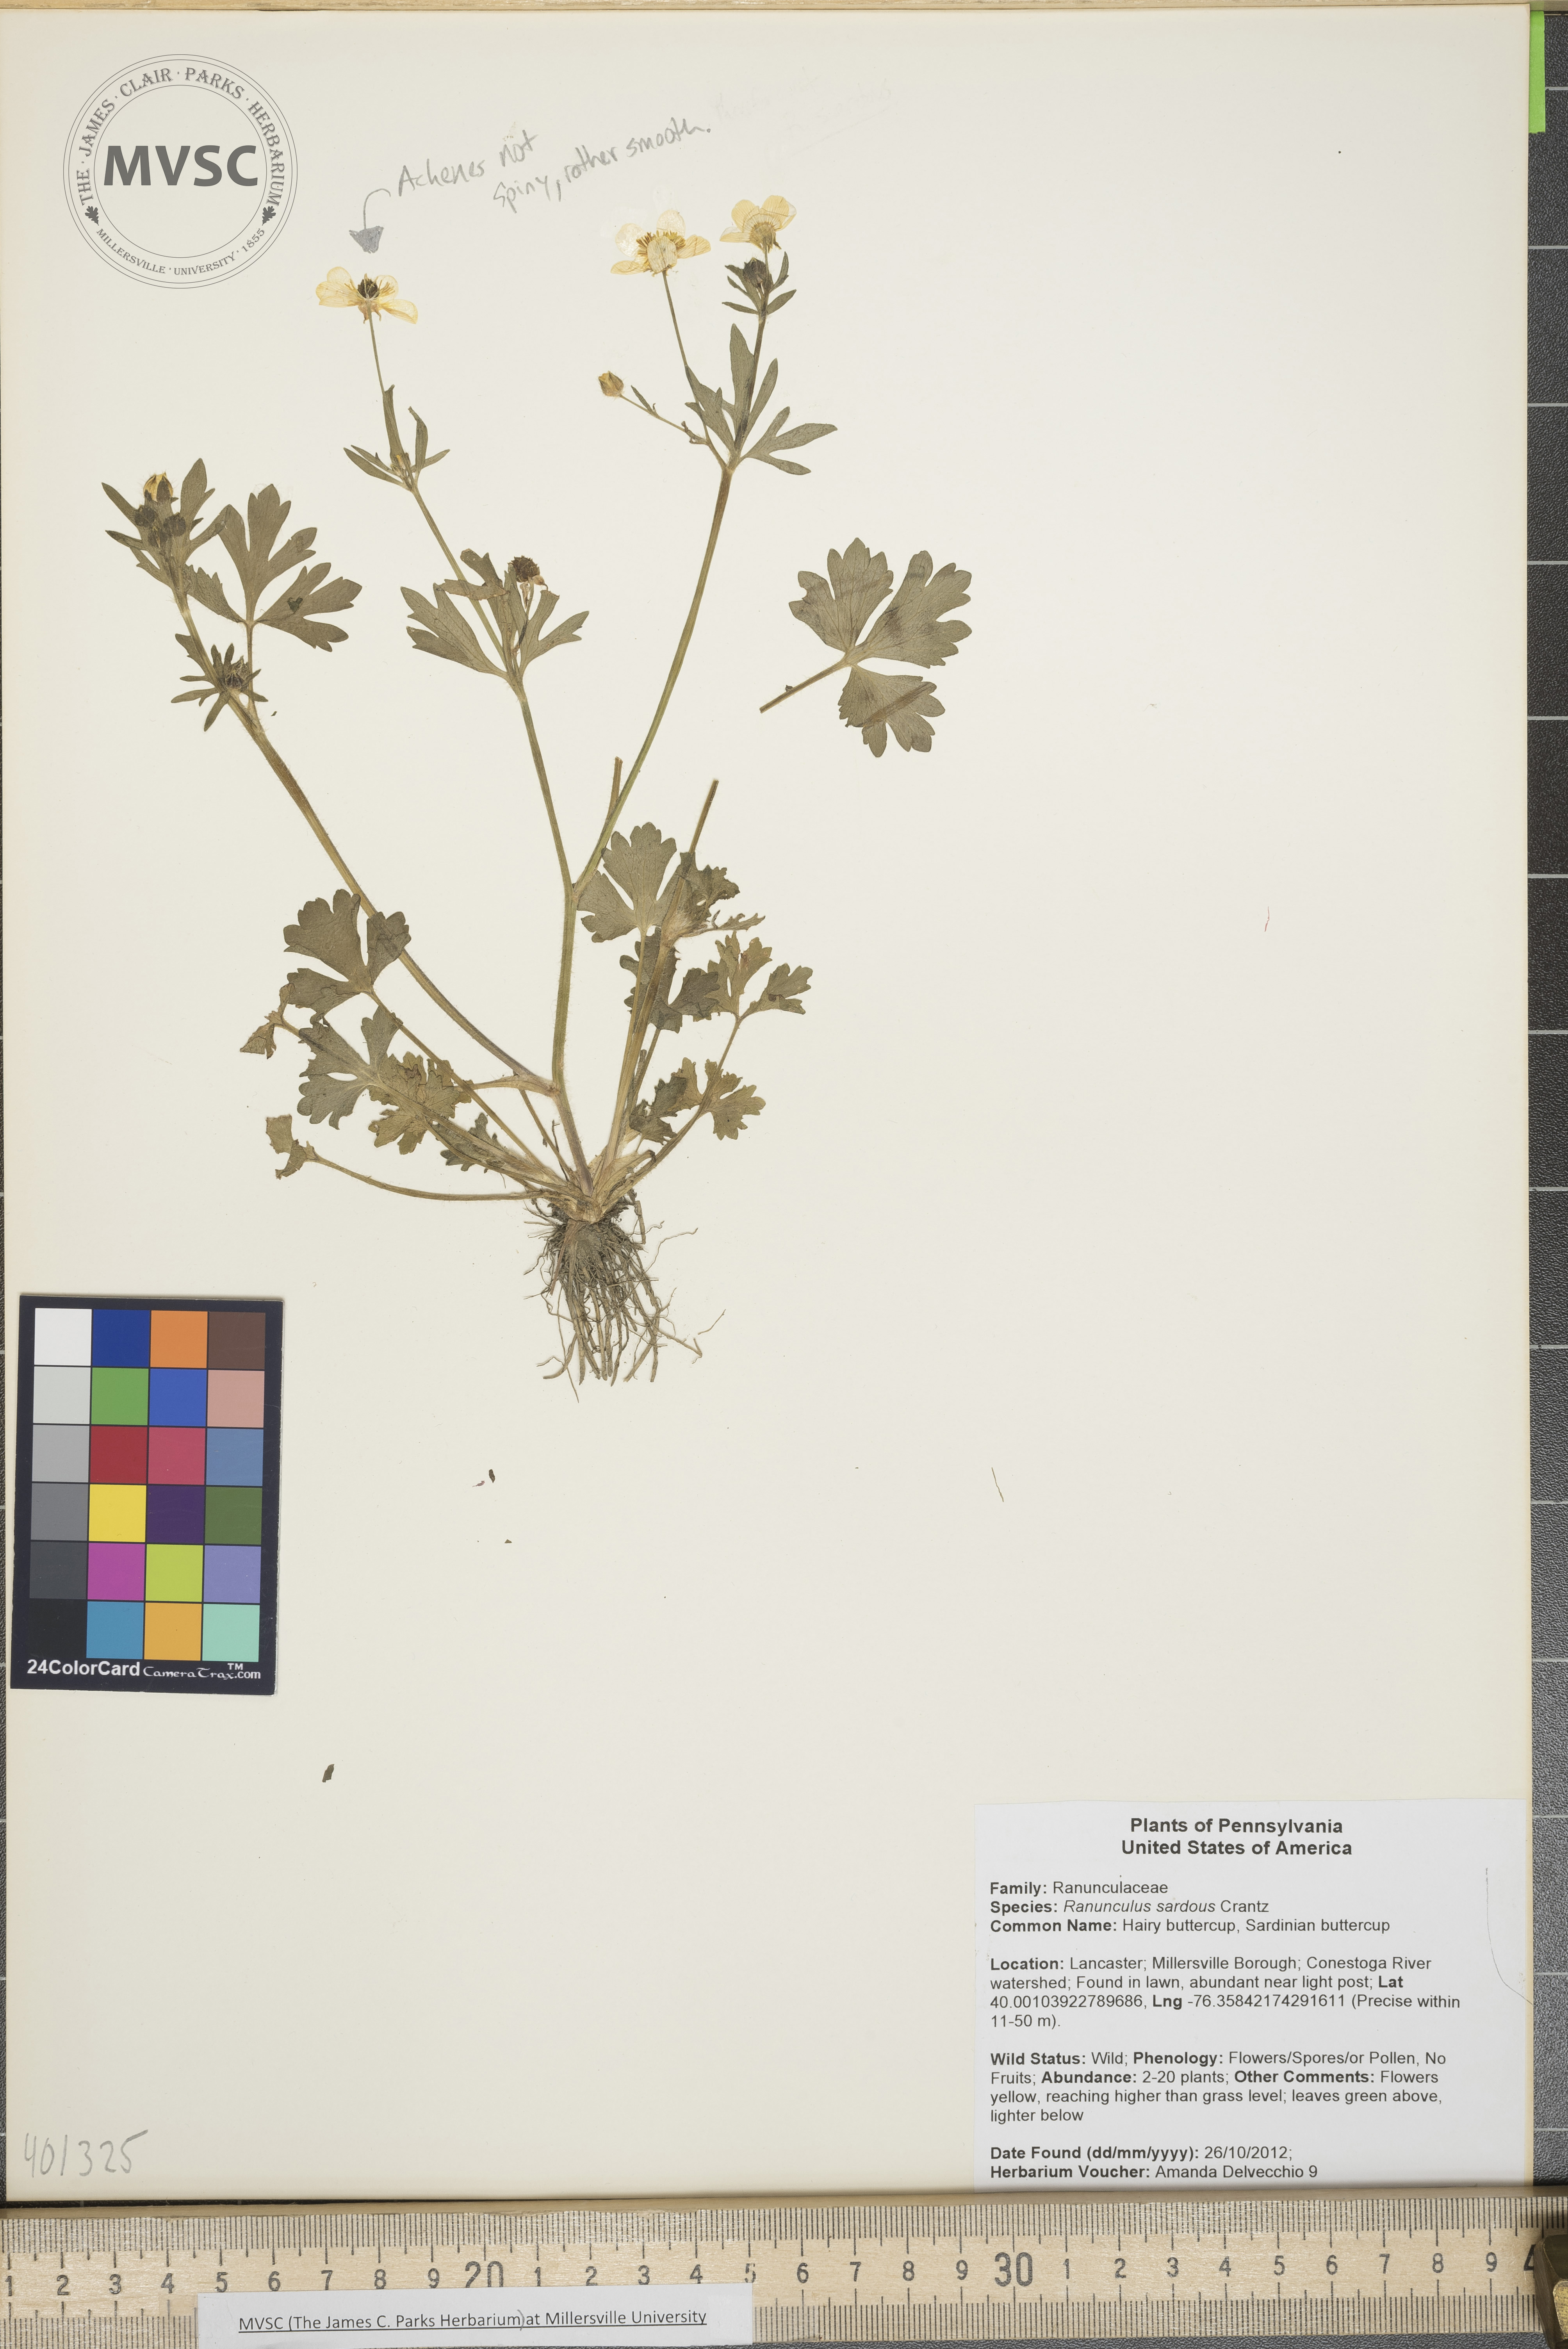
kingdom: Plantae
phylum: Tracheophyta
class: Magnoliopsida
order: Ranunculales
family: Ranunculaceae
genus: Ranunculus
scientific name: Ranunculus sardous
